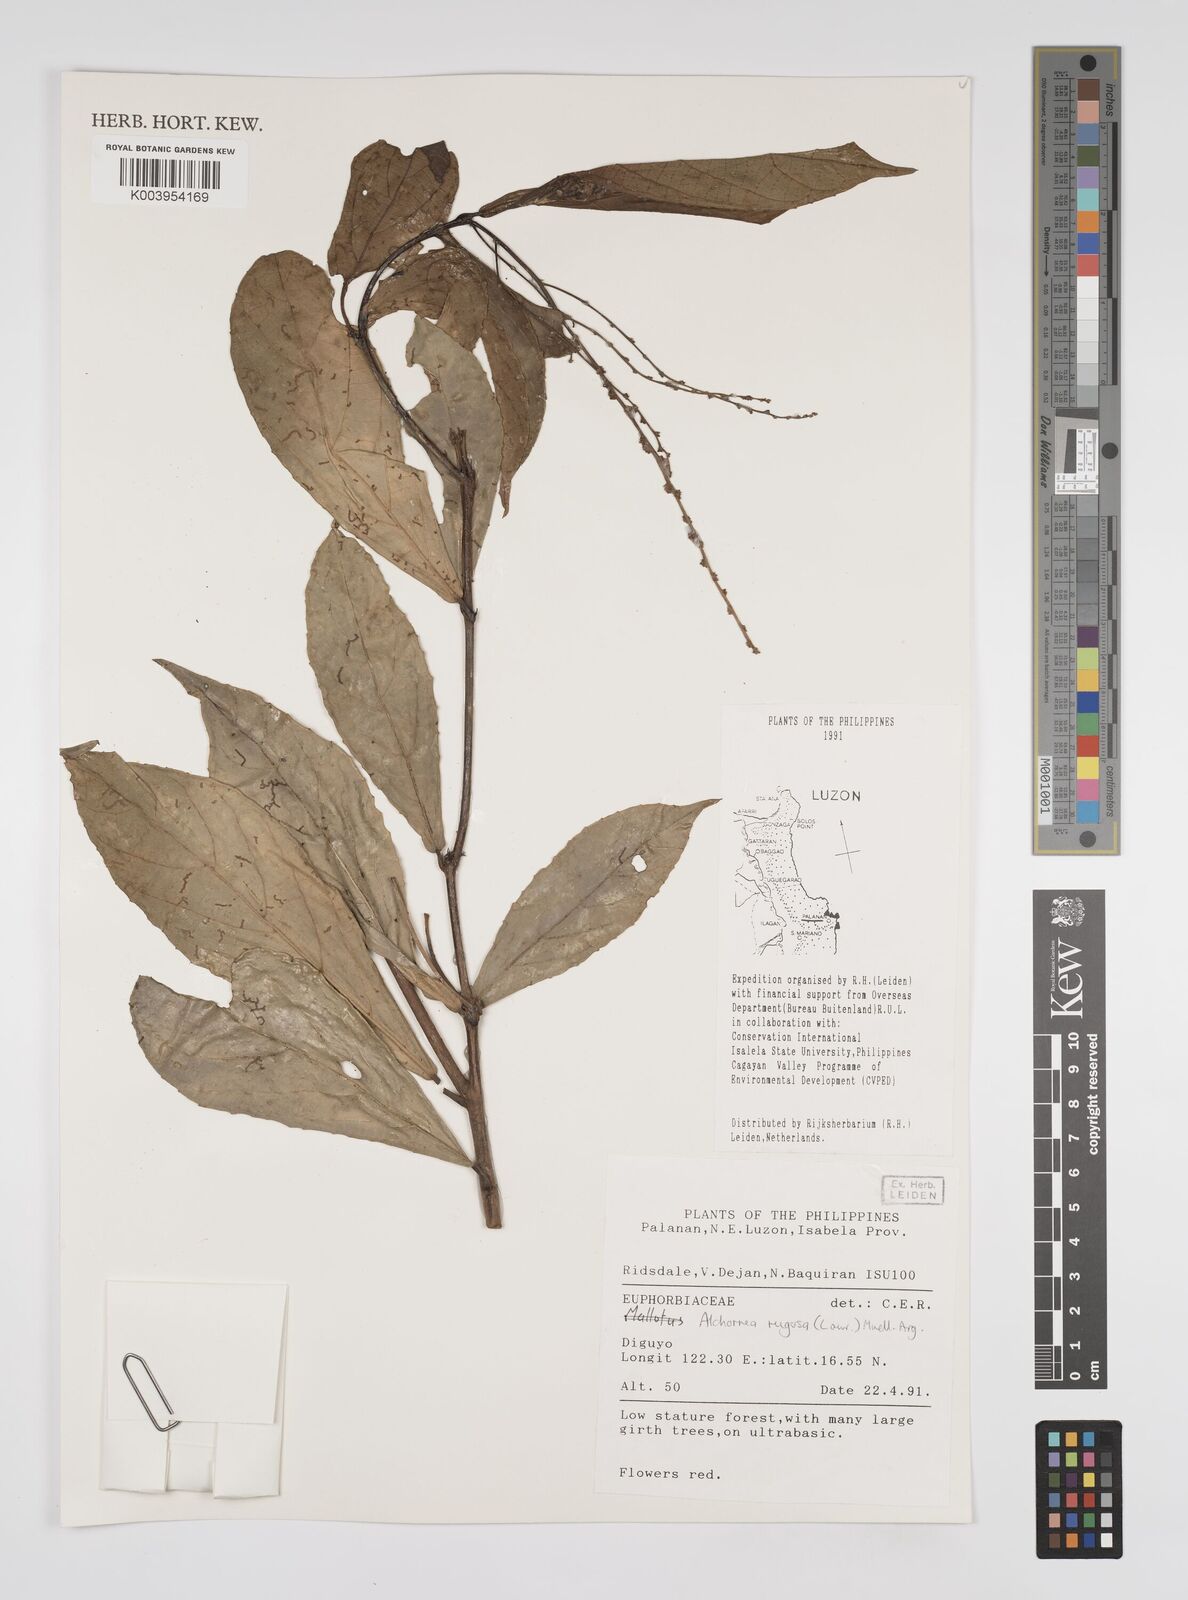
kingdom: Plantae
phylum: Tracheophyta
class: Magnoliopsida
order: Malpighiales
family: Euphorbiaceae
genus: Alchornea
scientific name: Alchornea rugosa
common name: Alchorntree
